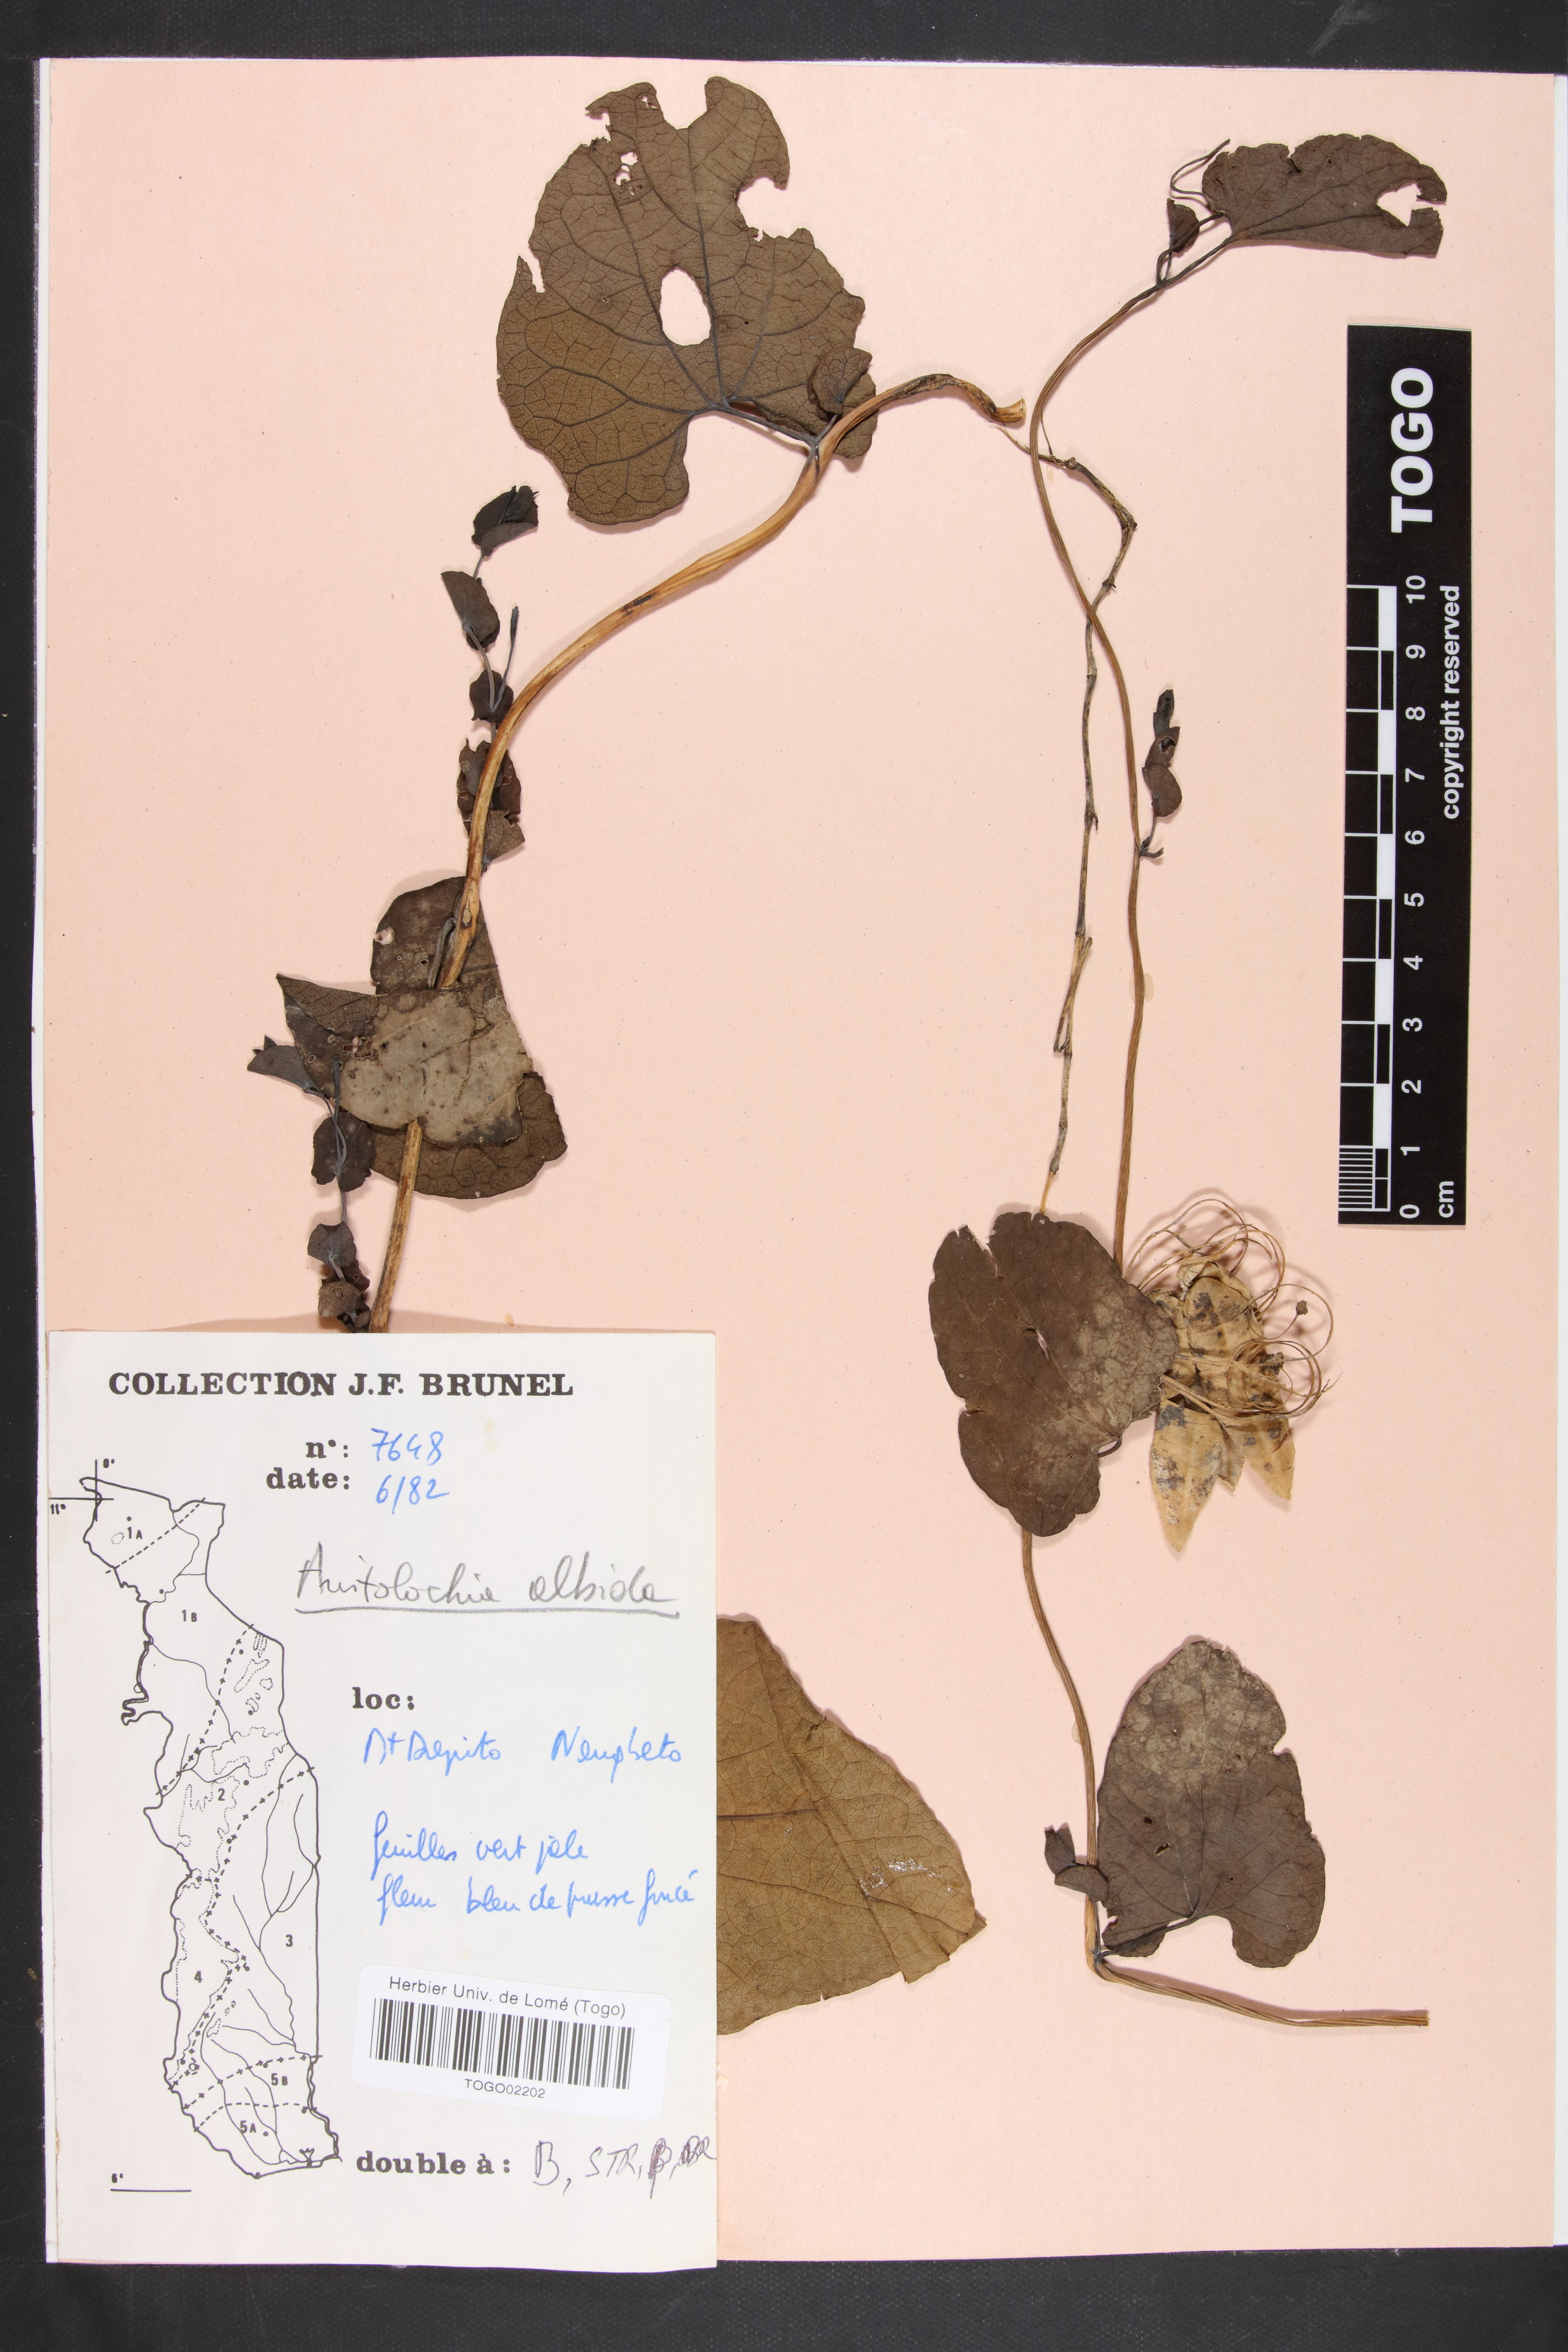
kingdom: Plantae
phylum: Tracheophyta
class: Magnoliopsida
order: Piperales
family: Aristolochiaceae
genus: Aristolochia
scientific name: Aristolochia albida
